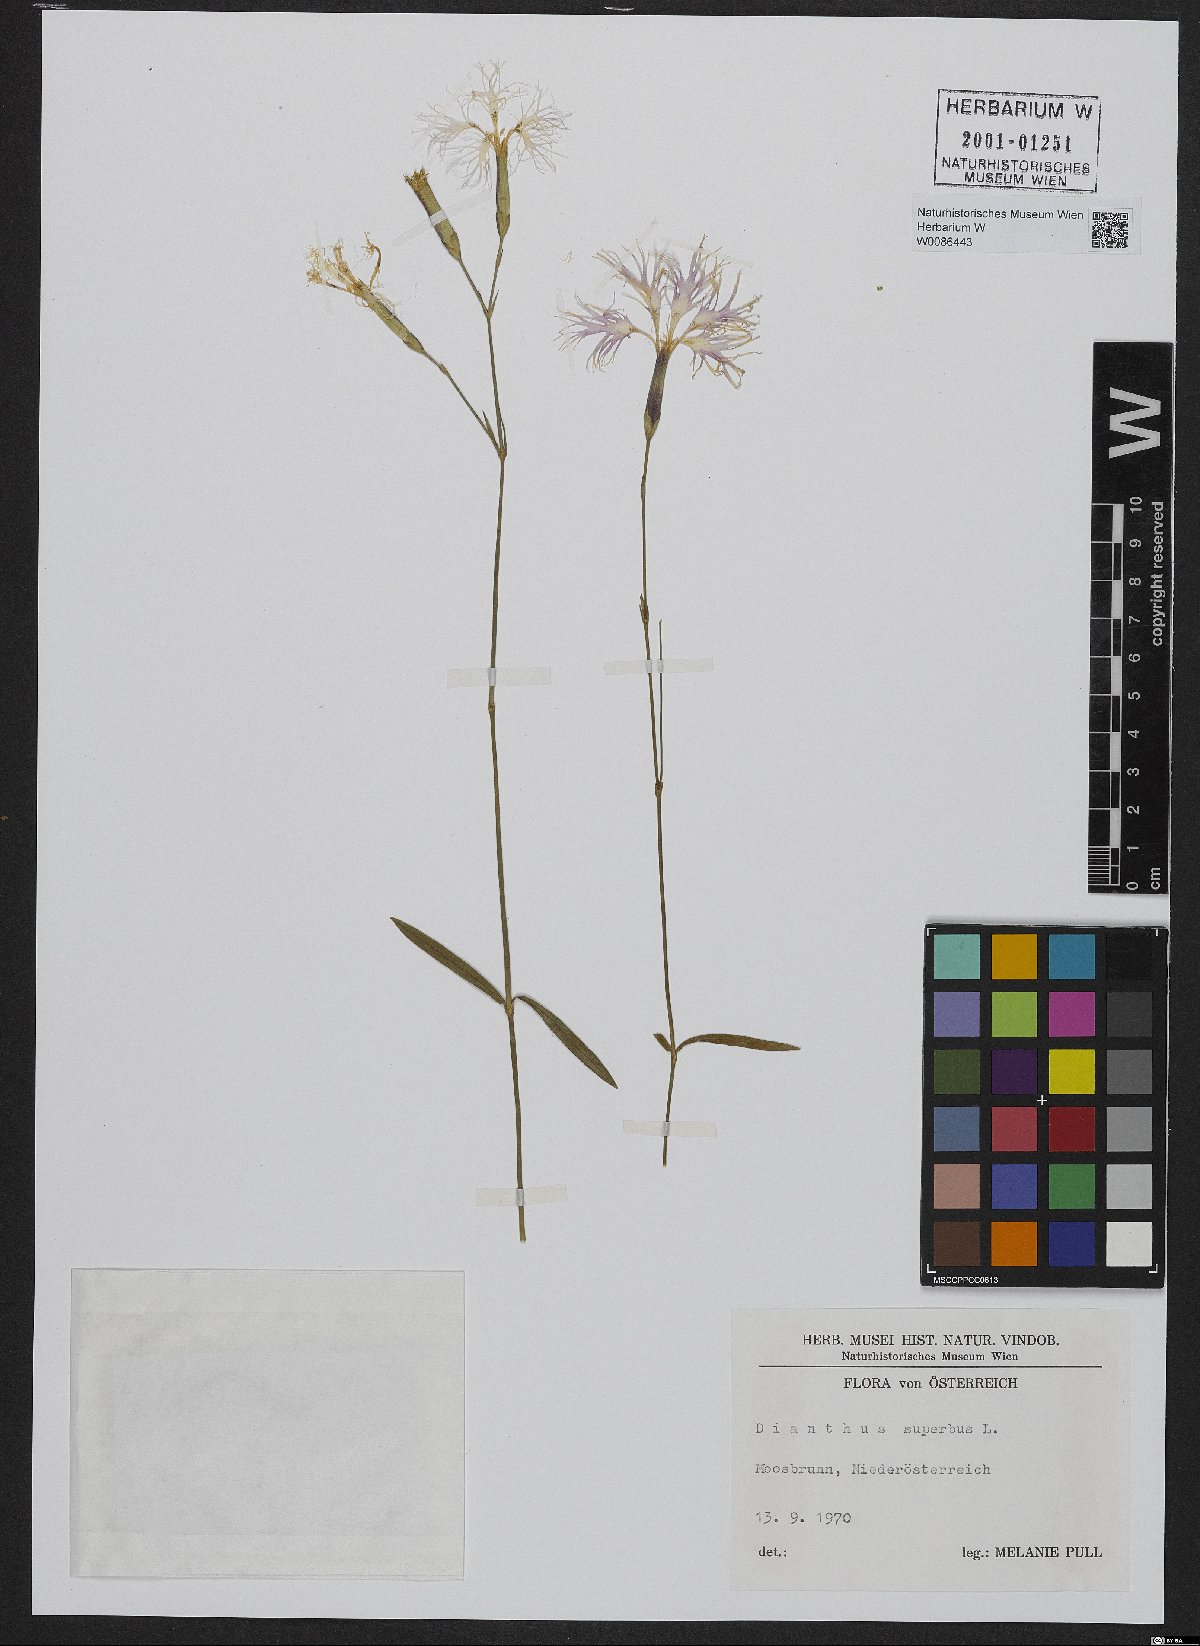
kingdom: Plantae
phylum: Tracheophyta
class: Magnoliopsida
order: Caryophyllales
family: Caryophyllaceae
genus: Dianthus
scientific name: Dianthus superbus
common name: Fringed pink
